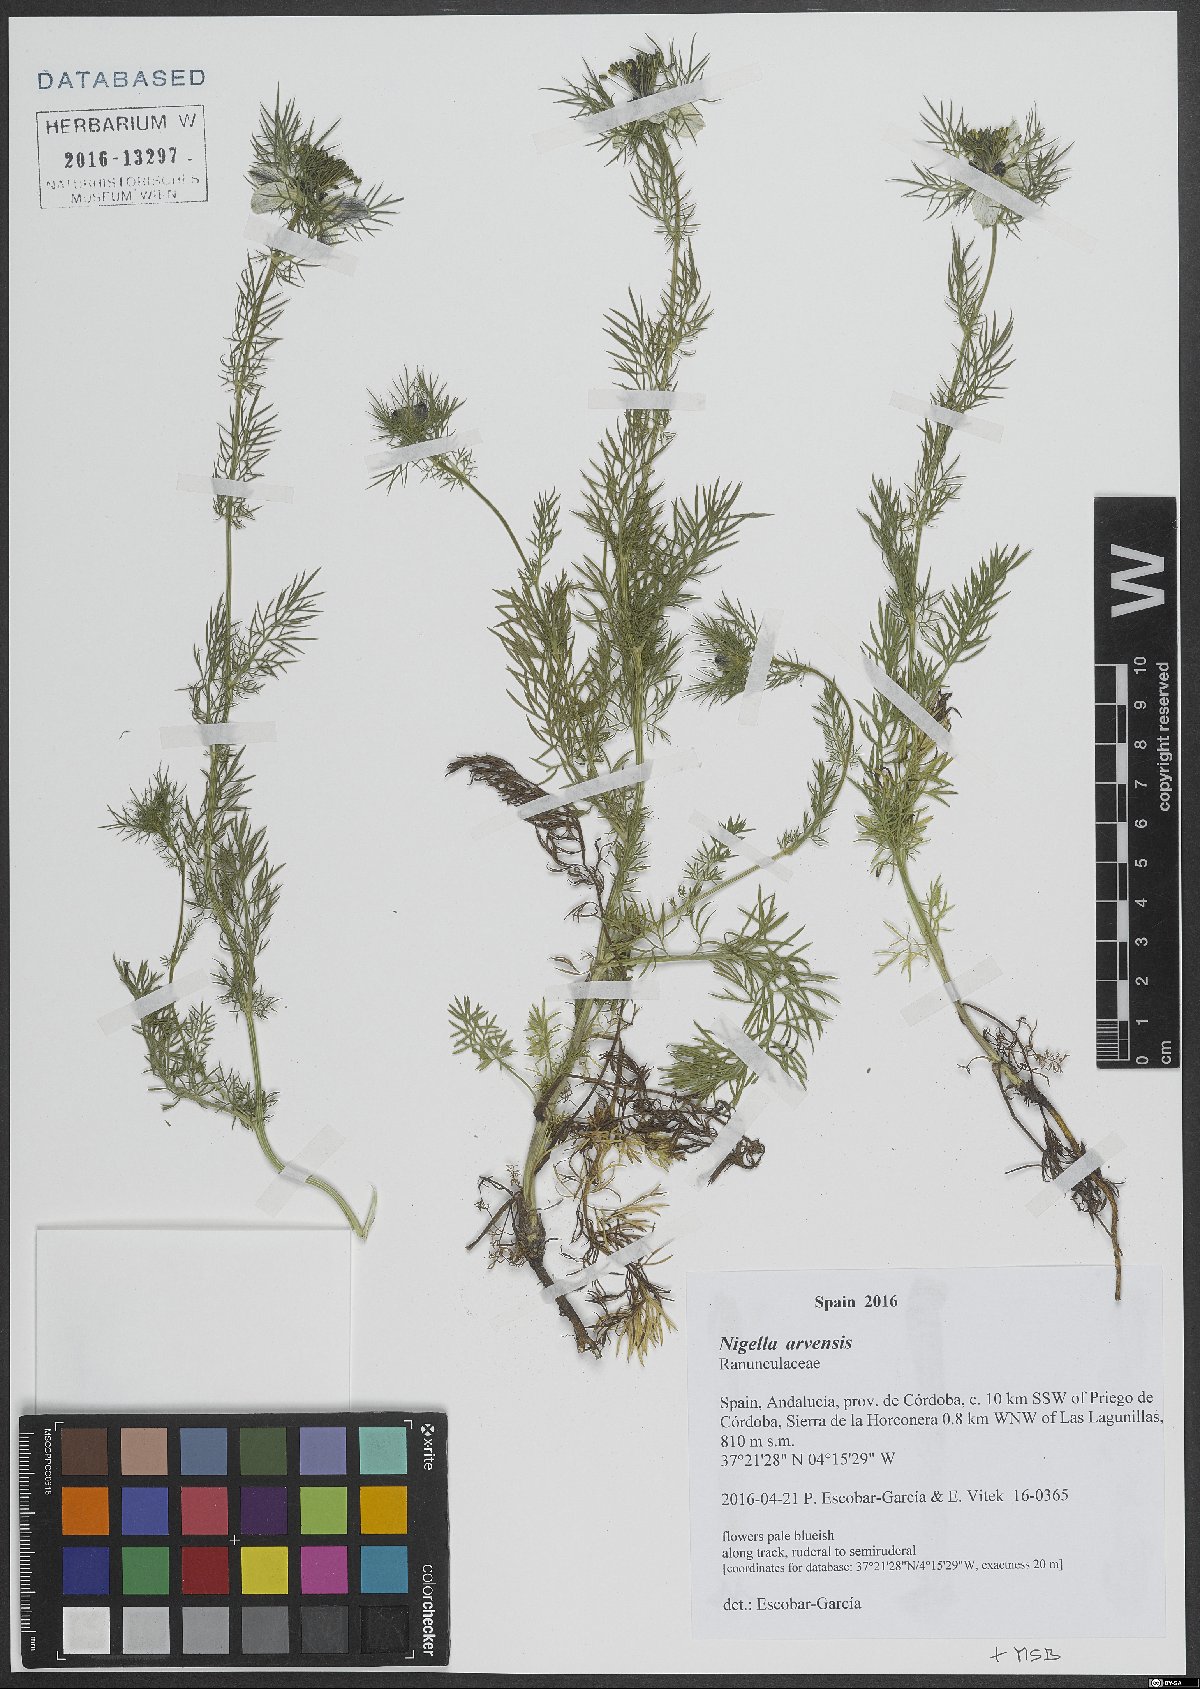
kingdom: Plantae
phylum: Tracheophyta
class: Magnoliopsida
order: Ranunculales
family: Ranunculaceae
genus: Nigella
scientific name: Nigella arvensis
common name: Wild fennel-flower
